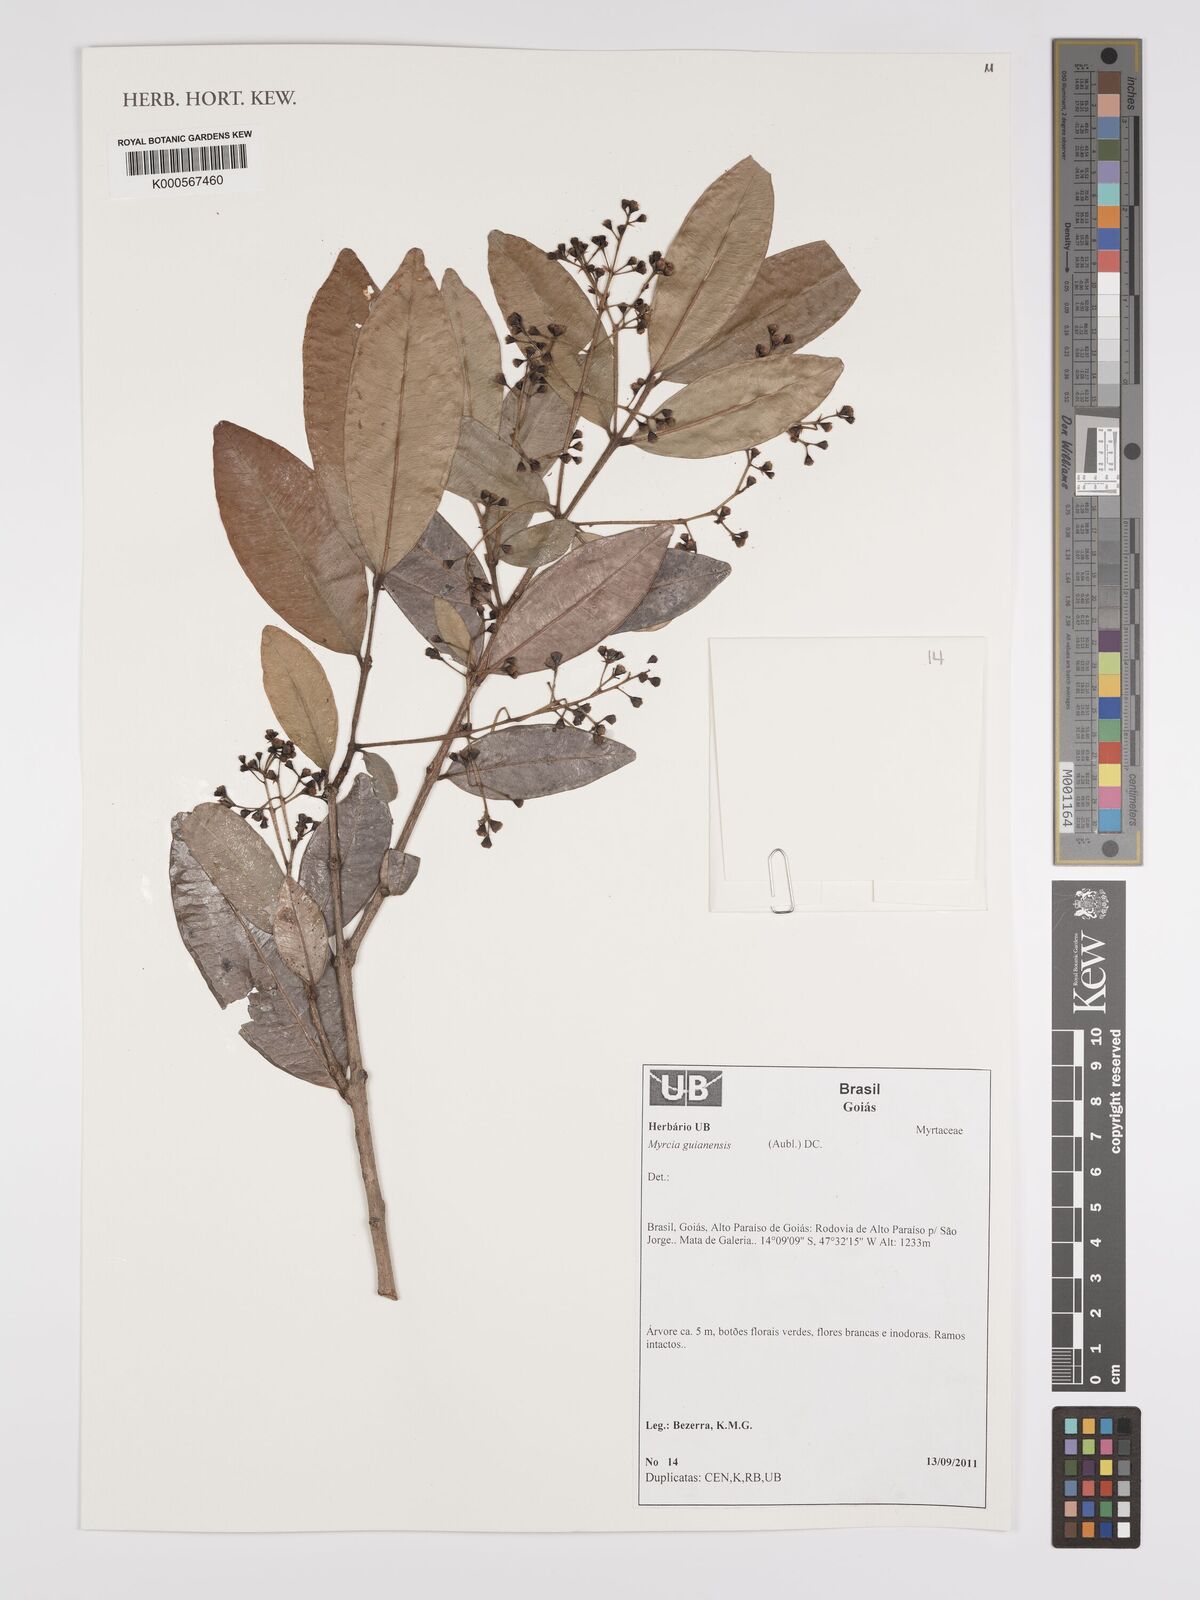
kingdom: Plantae
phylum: Tracheophyta
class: Magnoliopsida
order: Myrtales
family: Myrtaceae
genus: Myrcia
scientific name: Myrcia guianensis
